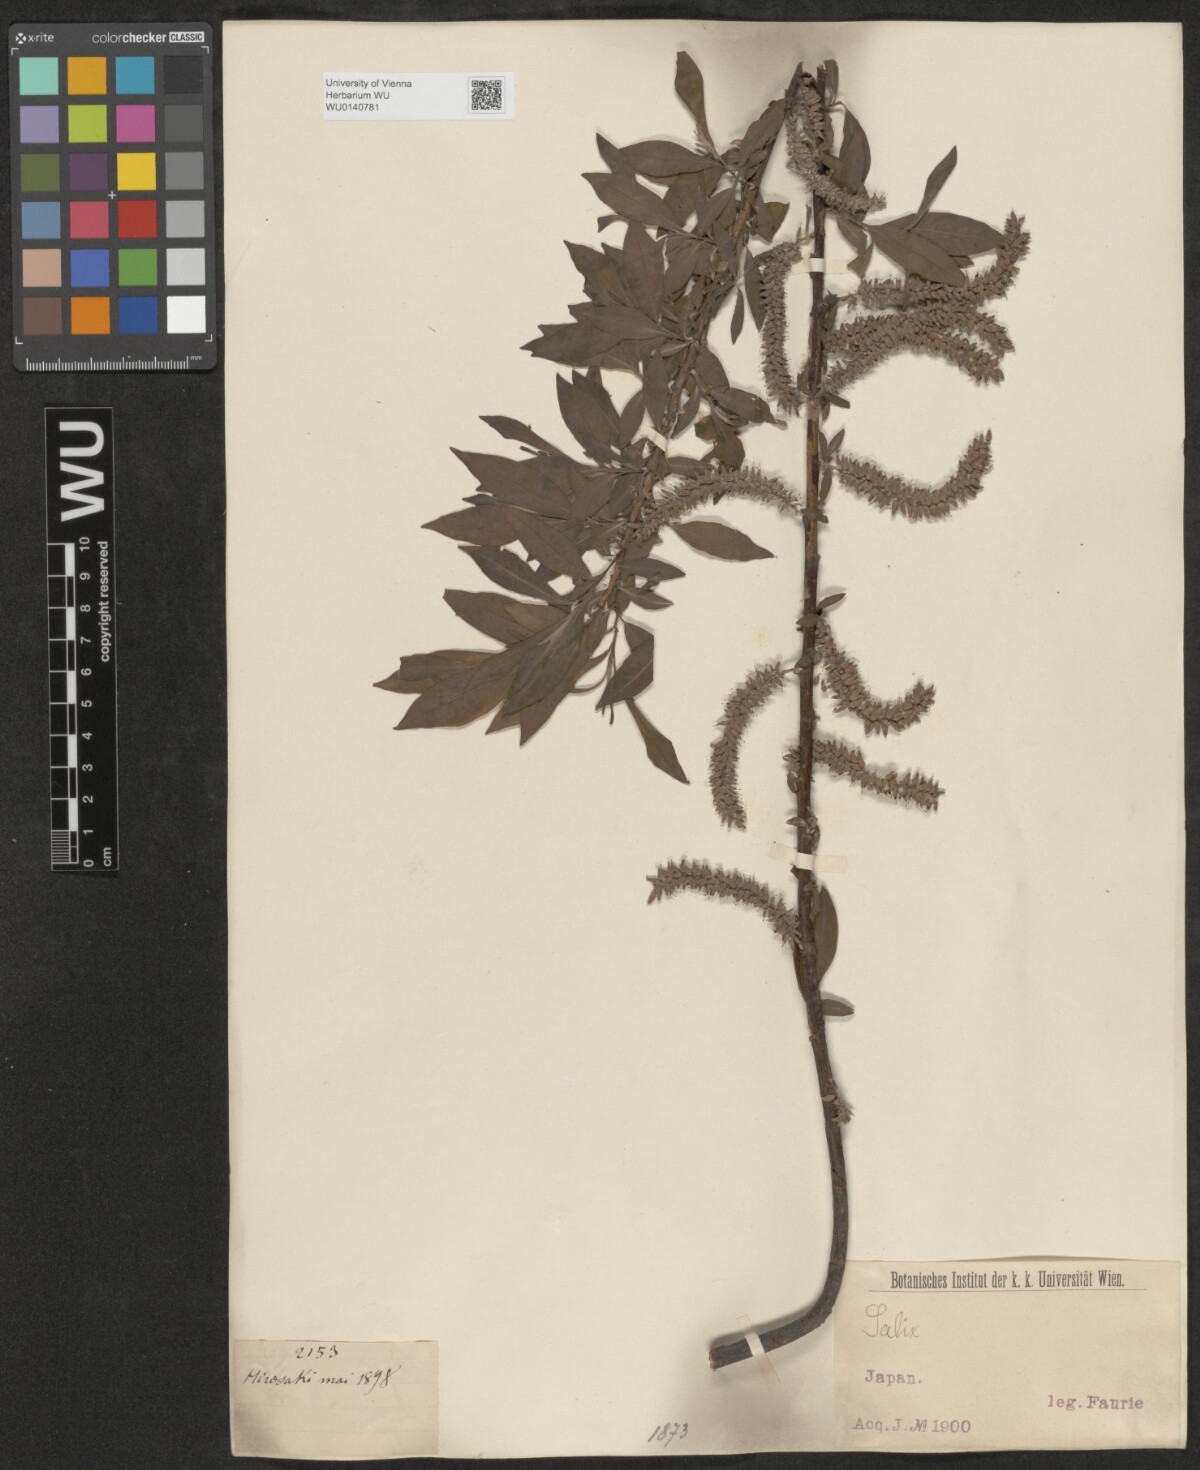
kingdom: Plantae
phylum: Tracheophyta
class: Magnoliopsida
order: Malpighiales
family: Salicaceae
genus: Salix
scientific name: Salix
